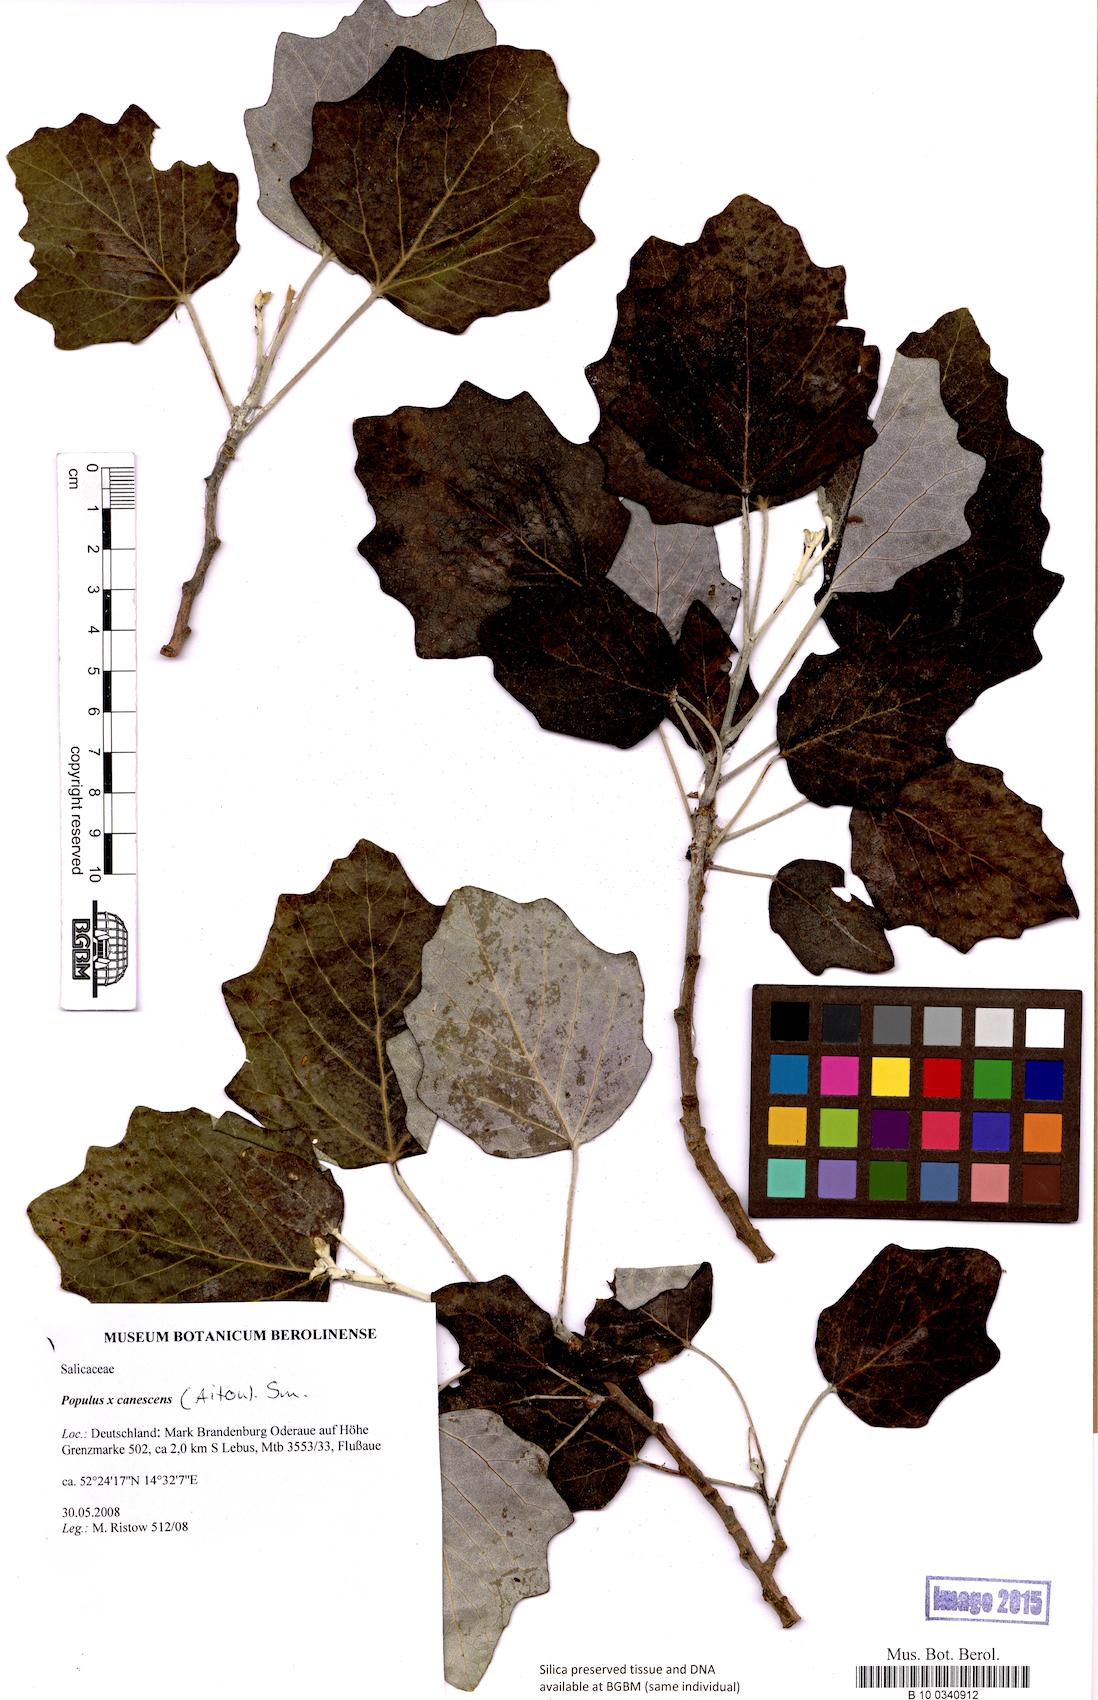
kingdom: Plantae
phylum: Tracheophyta
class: Magnoliopsida
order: Malpighiales
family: Salicaceae
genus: Populus
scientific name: Populus canescens
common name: Gray poplar
